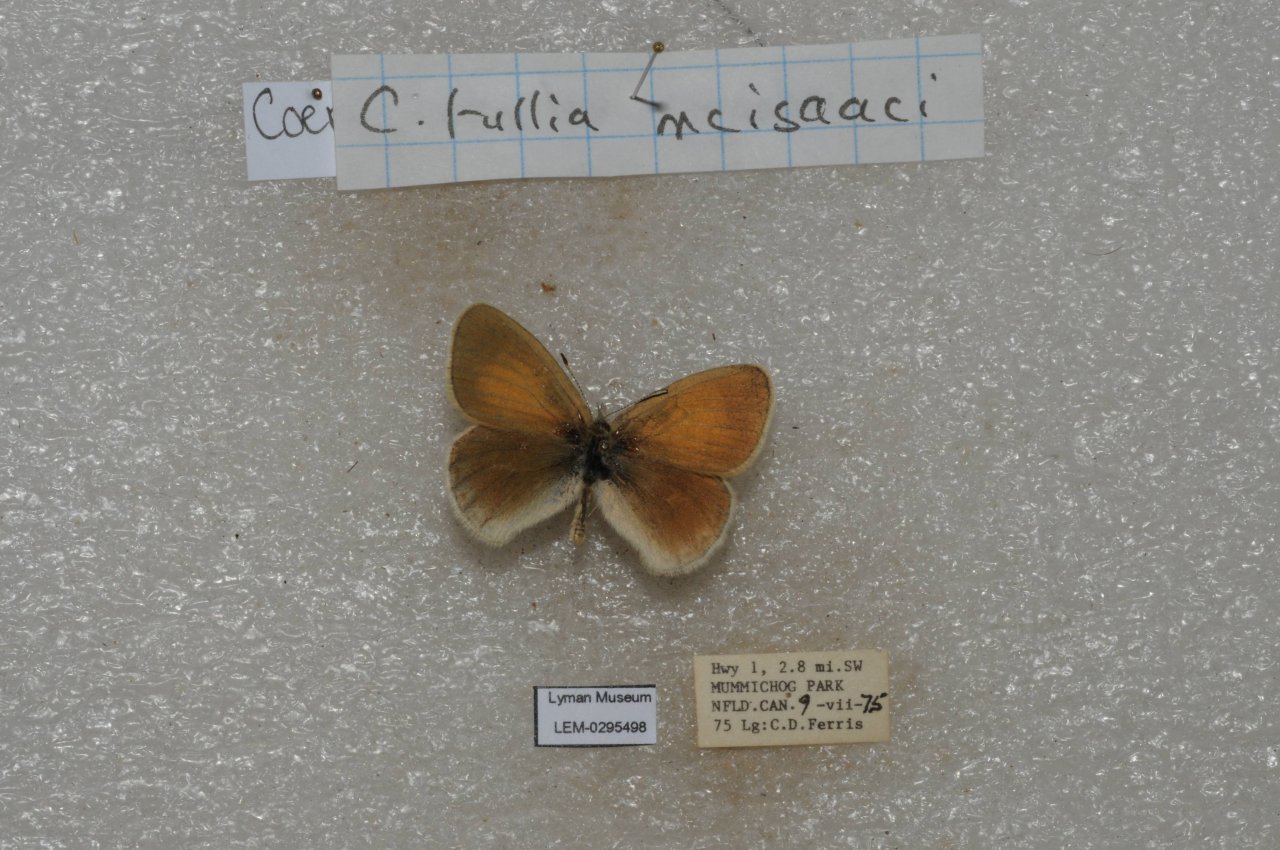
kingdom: Animalia
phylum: Arthropoda
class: Insecta
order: Lepidoptera
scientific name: Lepidoptera
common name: Butterflies
